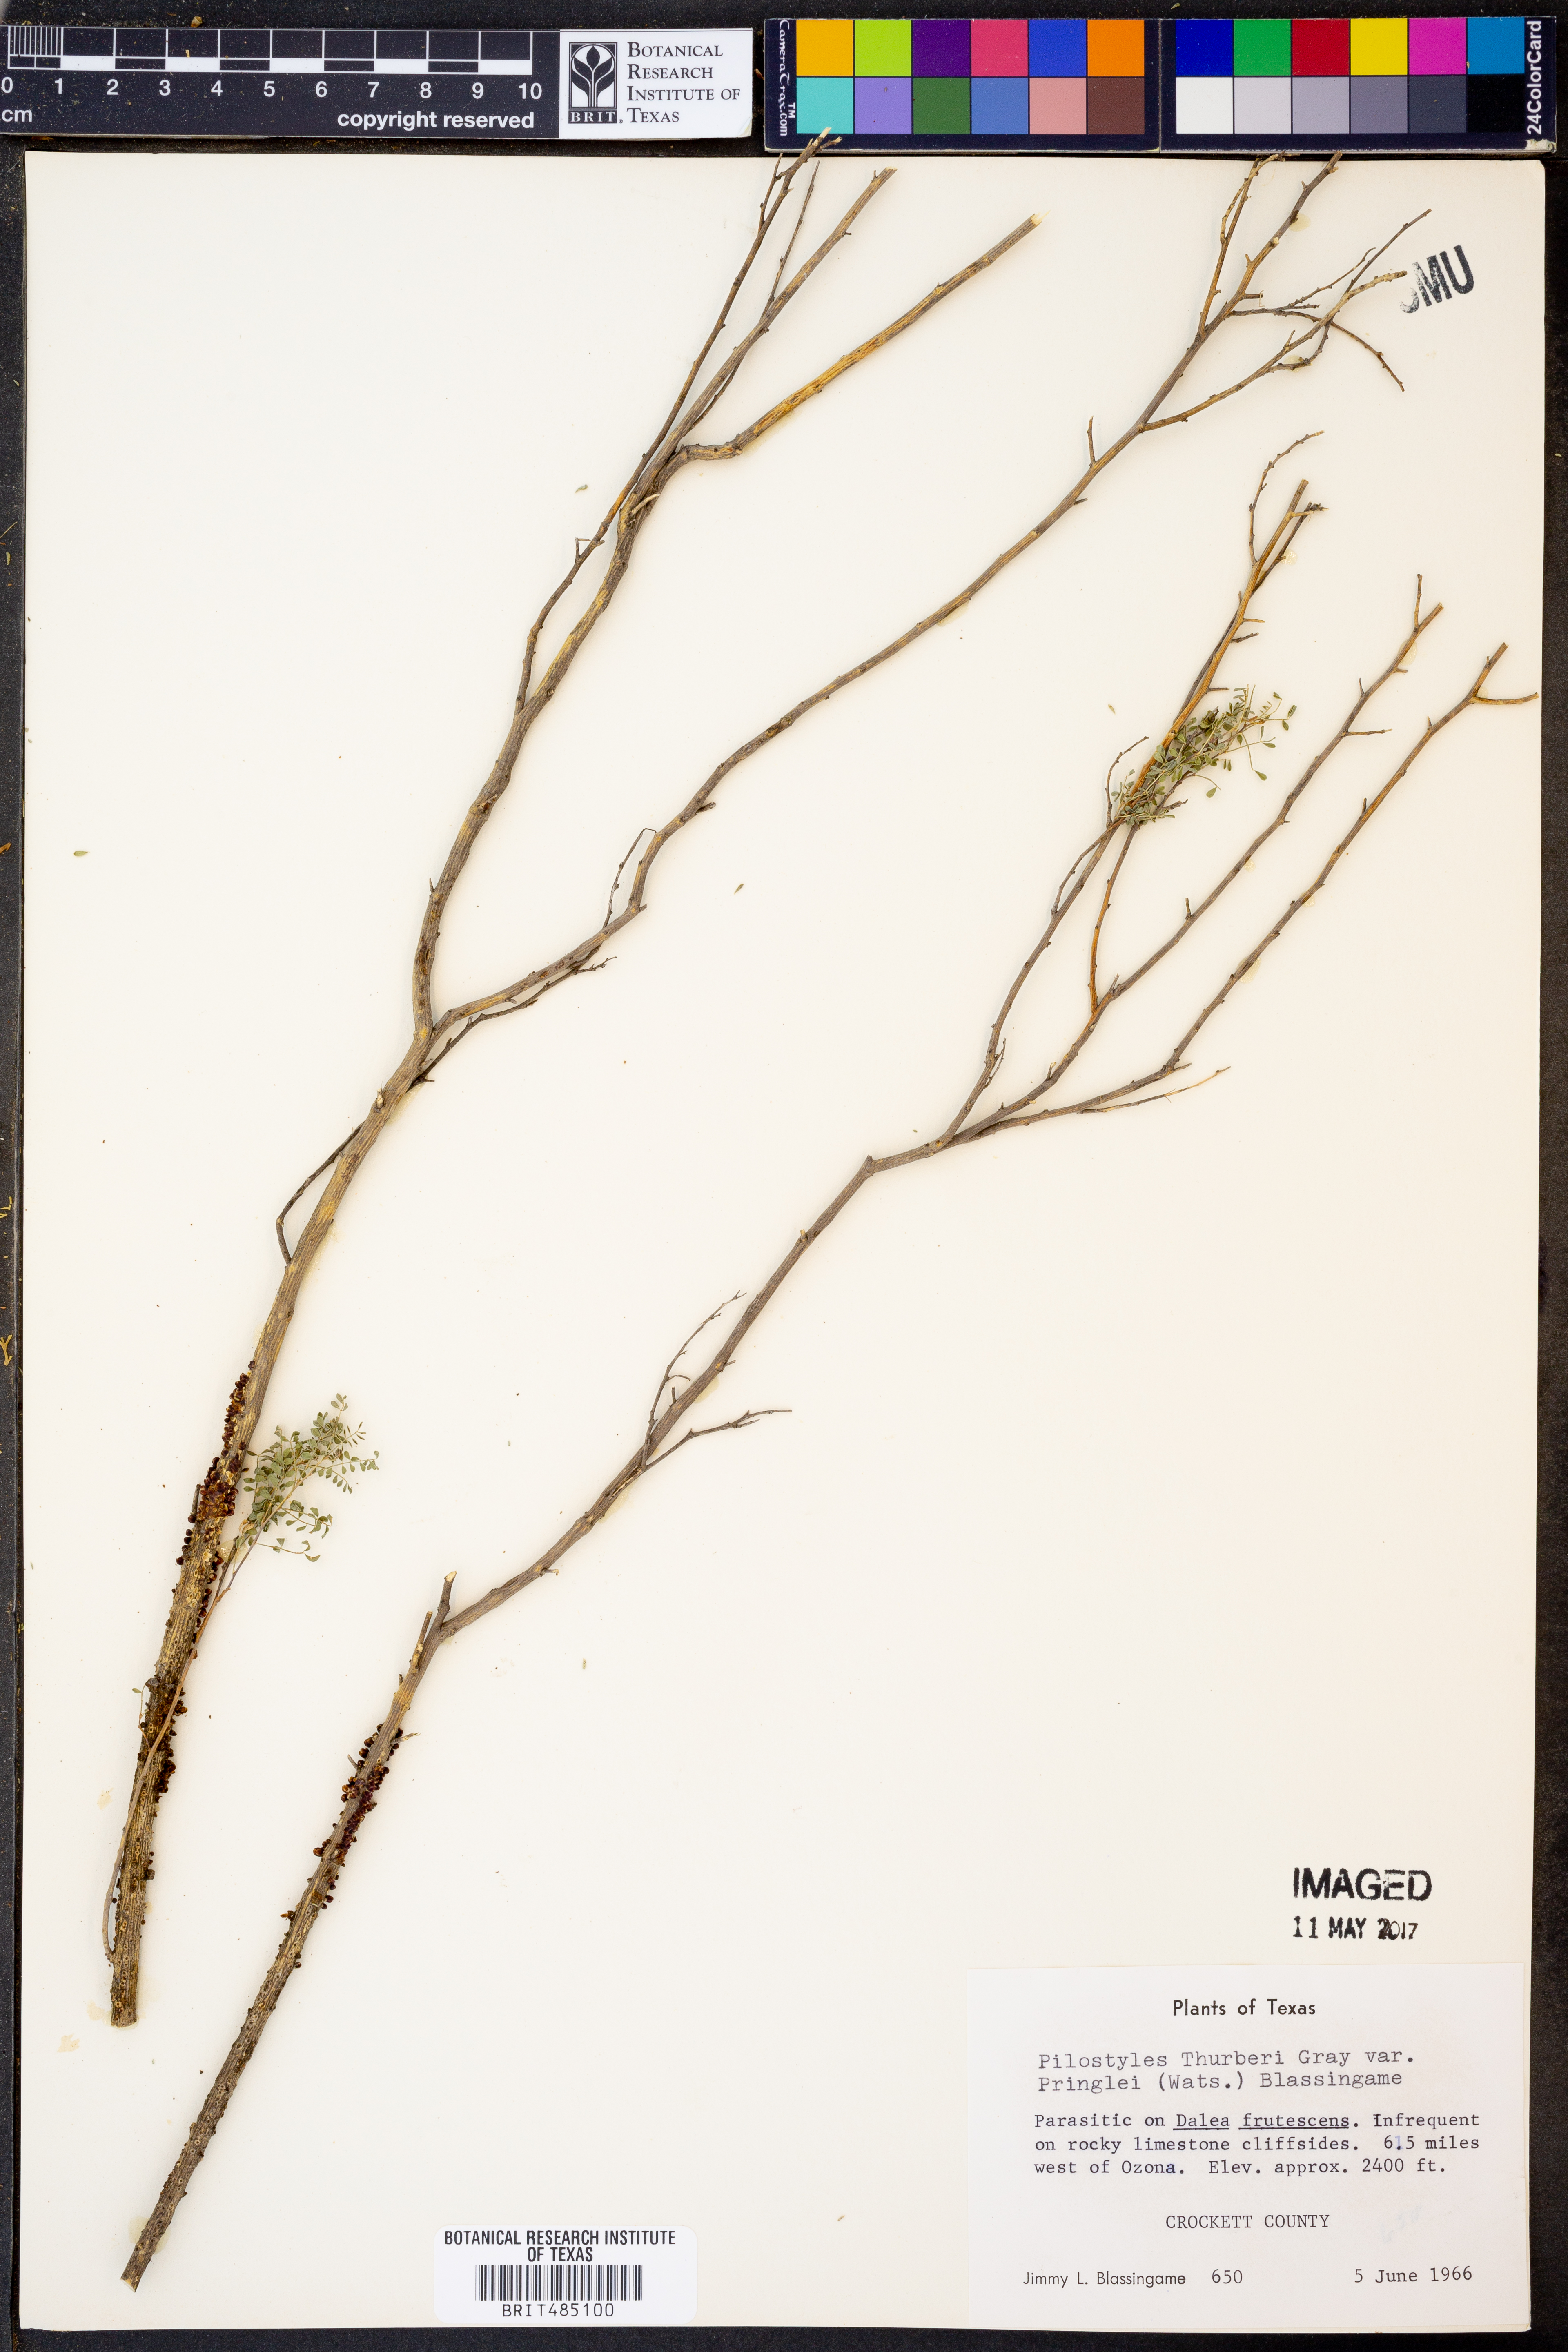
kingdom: Plantae
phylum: Tracheophyta
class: Magnoliopsida
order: Cucurbitales
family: Apodanthaceae
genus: Pilostyles
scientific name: Pilostyles thurberi
